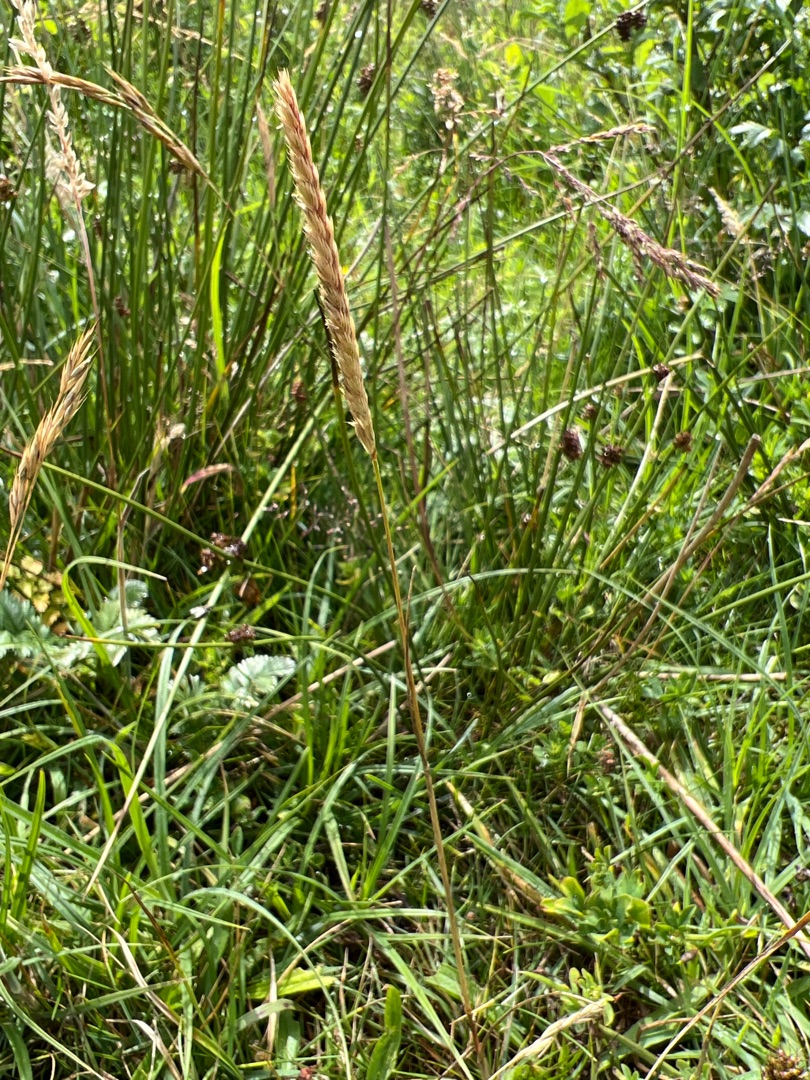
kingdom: Plantae
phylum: Tracheophyta
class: Liliopsida
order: Poales
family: Poaceae
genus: Cynosurus
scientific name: Cynosurus cristatus
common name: Kamgræs
